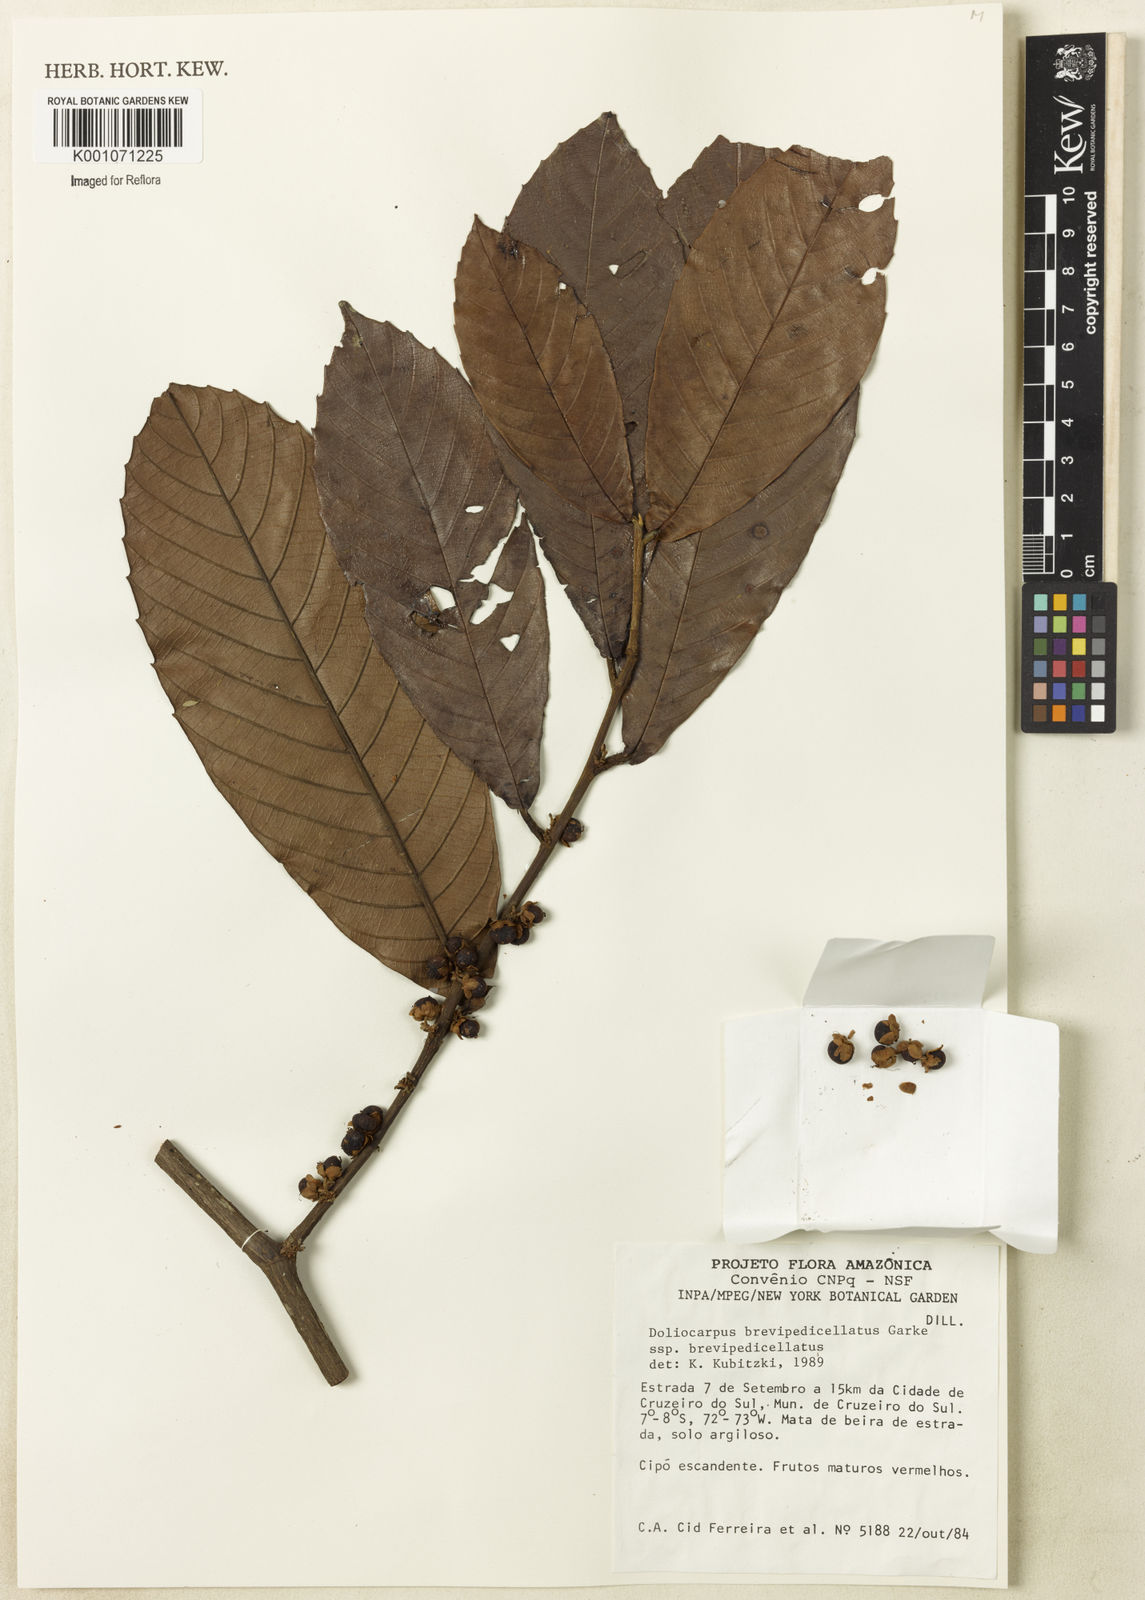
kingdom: Plantae
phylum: Tracheophyta
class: Magnoliopsida
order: Dilleniales
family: Dilleniaceae
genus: Doliocarpus
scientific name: Doliocarpus brevipedicellatus
